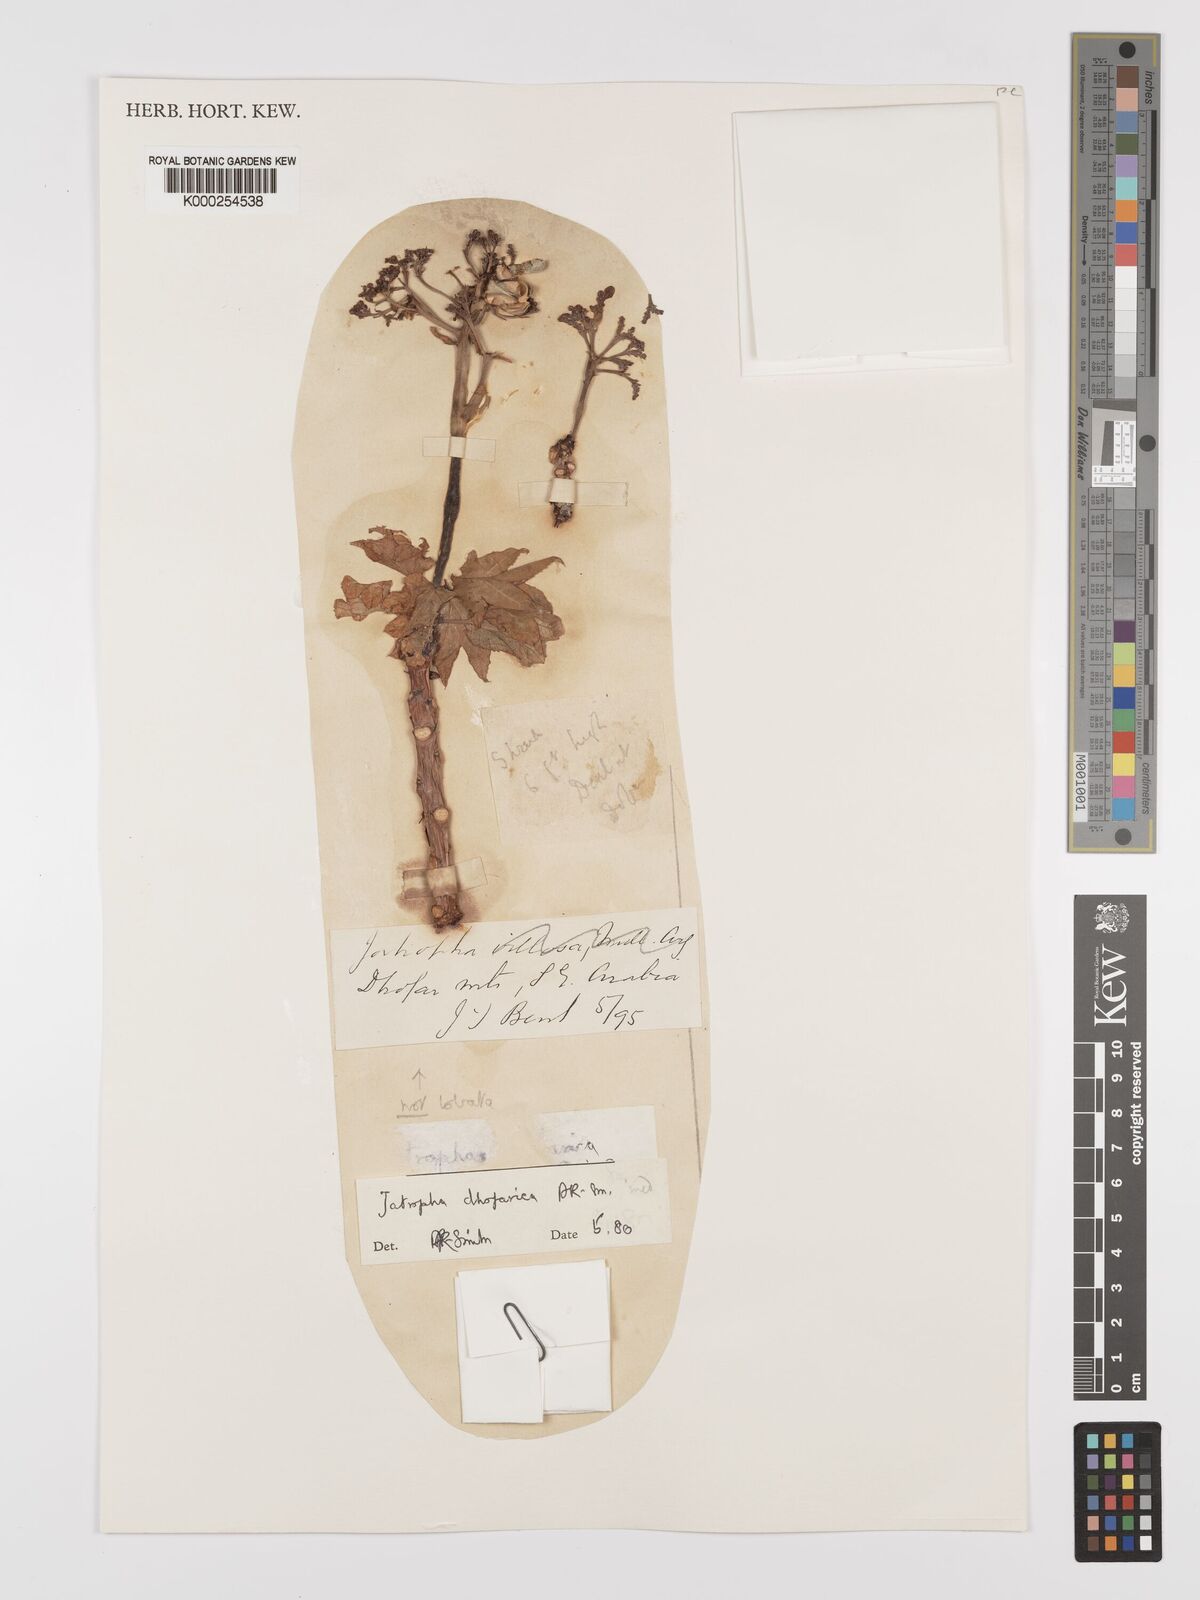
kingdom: Plantae
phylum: Tracheophyta
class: Magnoliopsida
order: Malpighiales
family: Euphorbiaceae
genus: Jatropha
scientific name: Jatropha dhofarica
